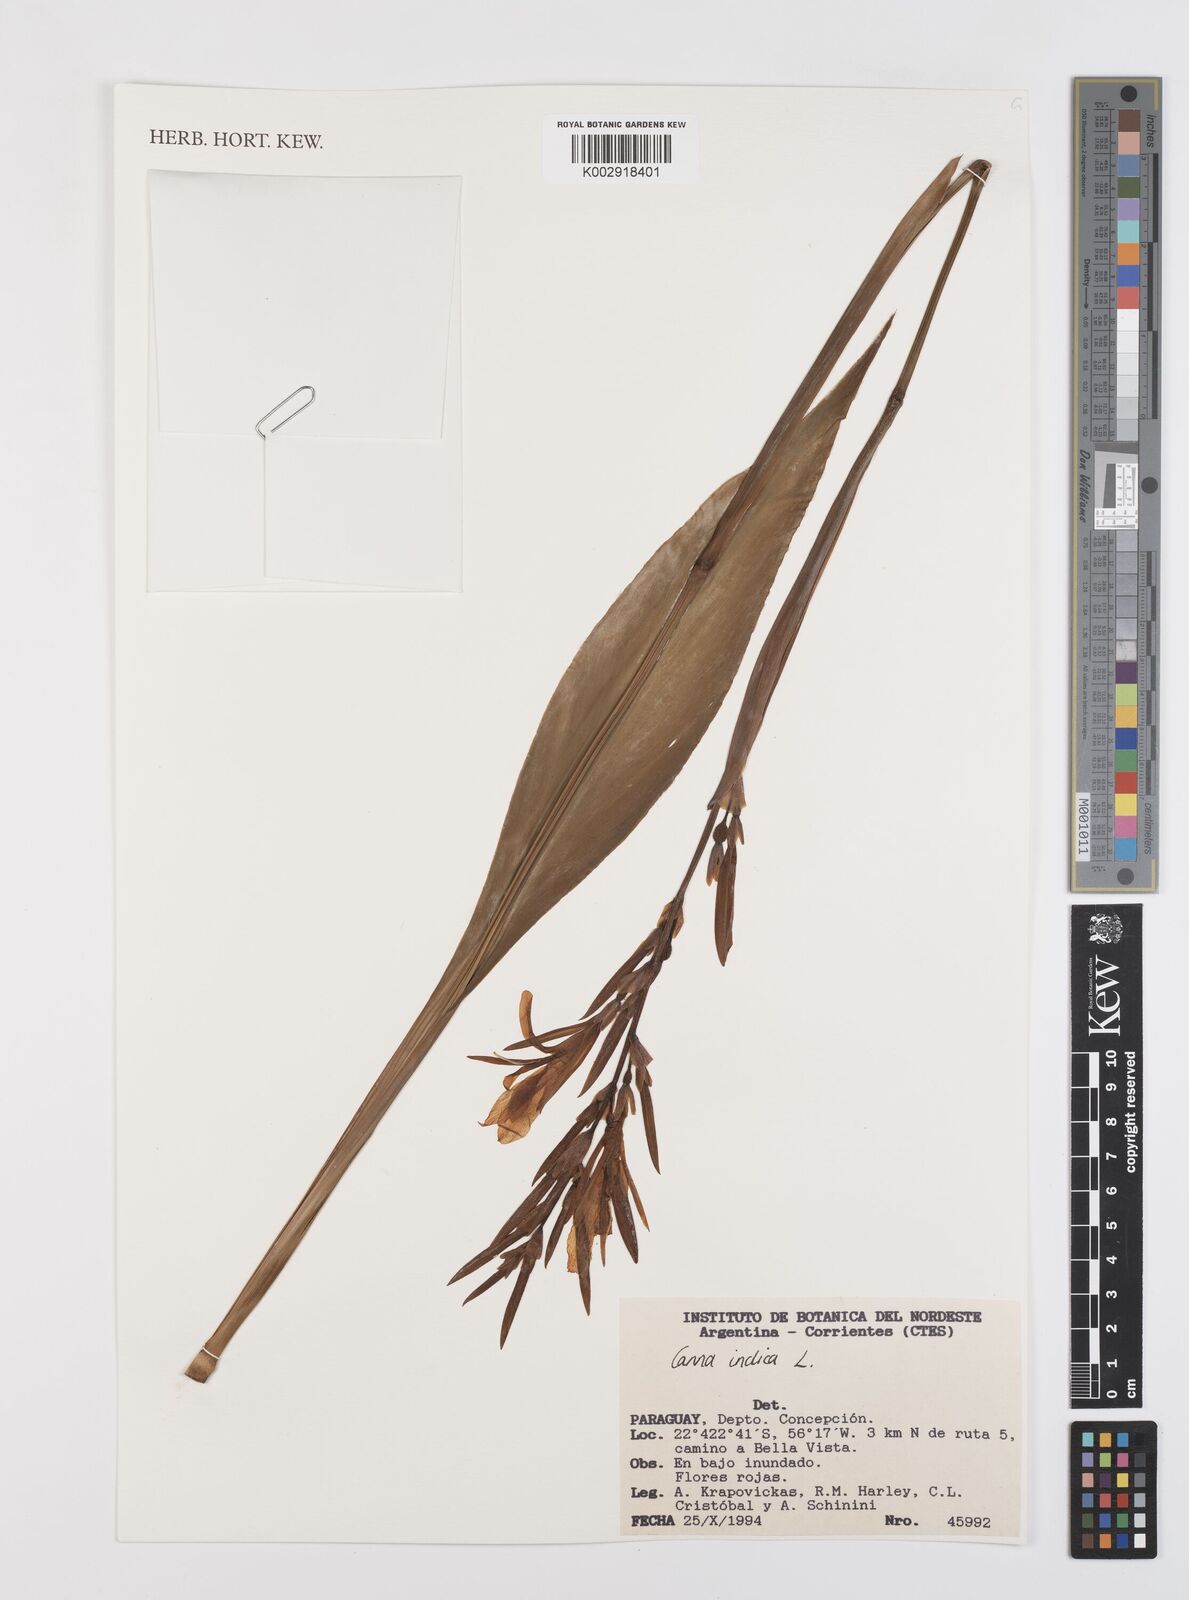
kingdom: Plantae
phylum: Tracheophyta
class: Liliopsida
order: Zingiberales
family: Cannaceae
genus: Canna
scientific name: Canna indica
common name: Indian shot
